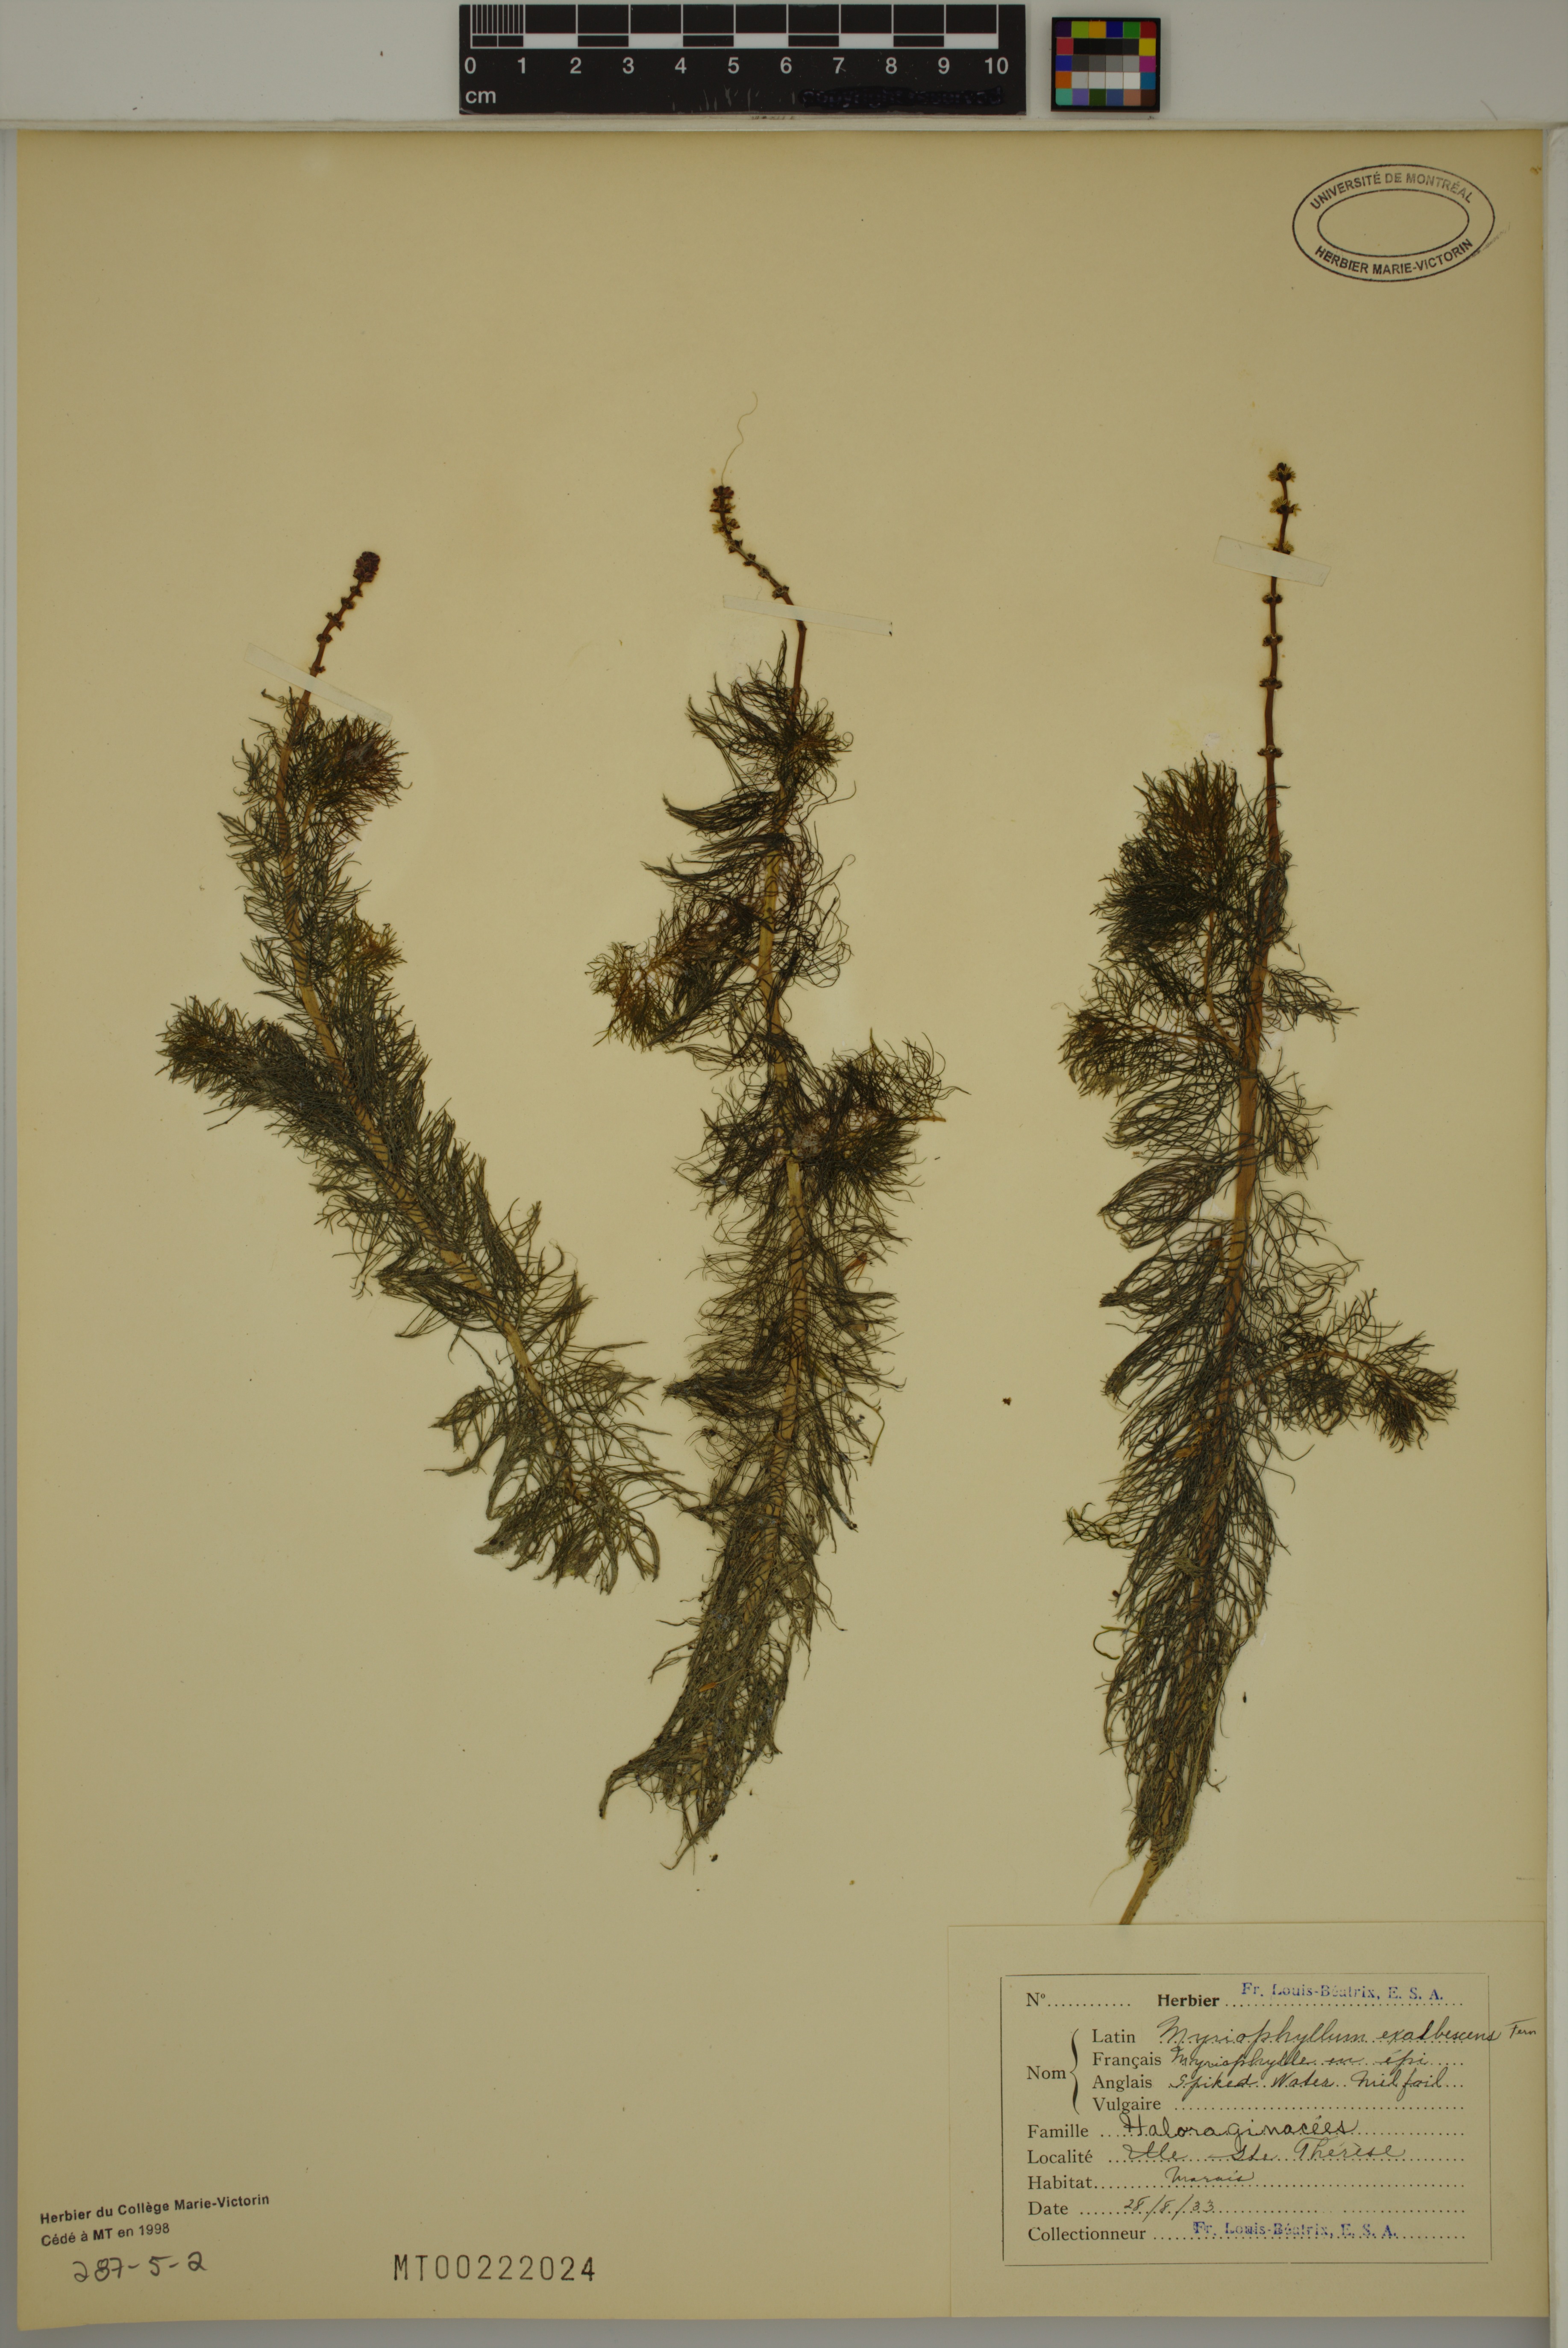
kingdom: Plantae
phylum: Tracheophyta
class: Magnoliopsida
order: Saxifragales
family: Haloragaceae
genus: Myriophyllum
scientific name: Myriophyllum sibiricum
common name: Siberian water-milfoil
